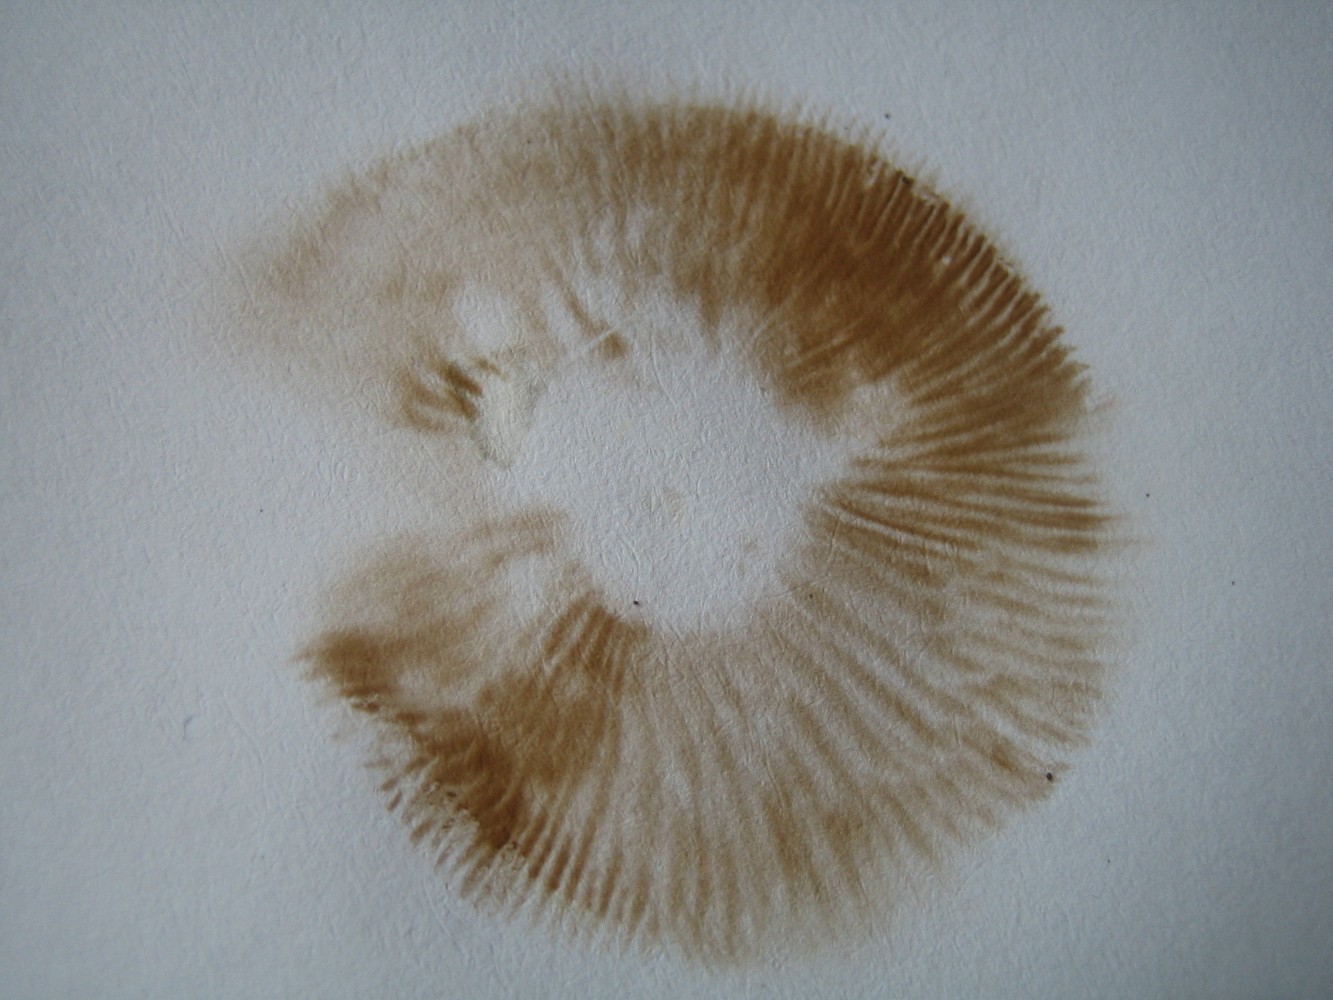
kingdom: Fungi
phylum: Basidiomycota
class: Agaricomycetes
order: Agaricales
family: Hymenogastraceae
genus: Hebeloma
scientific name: Hebeloma
